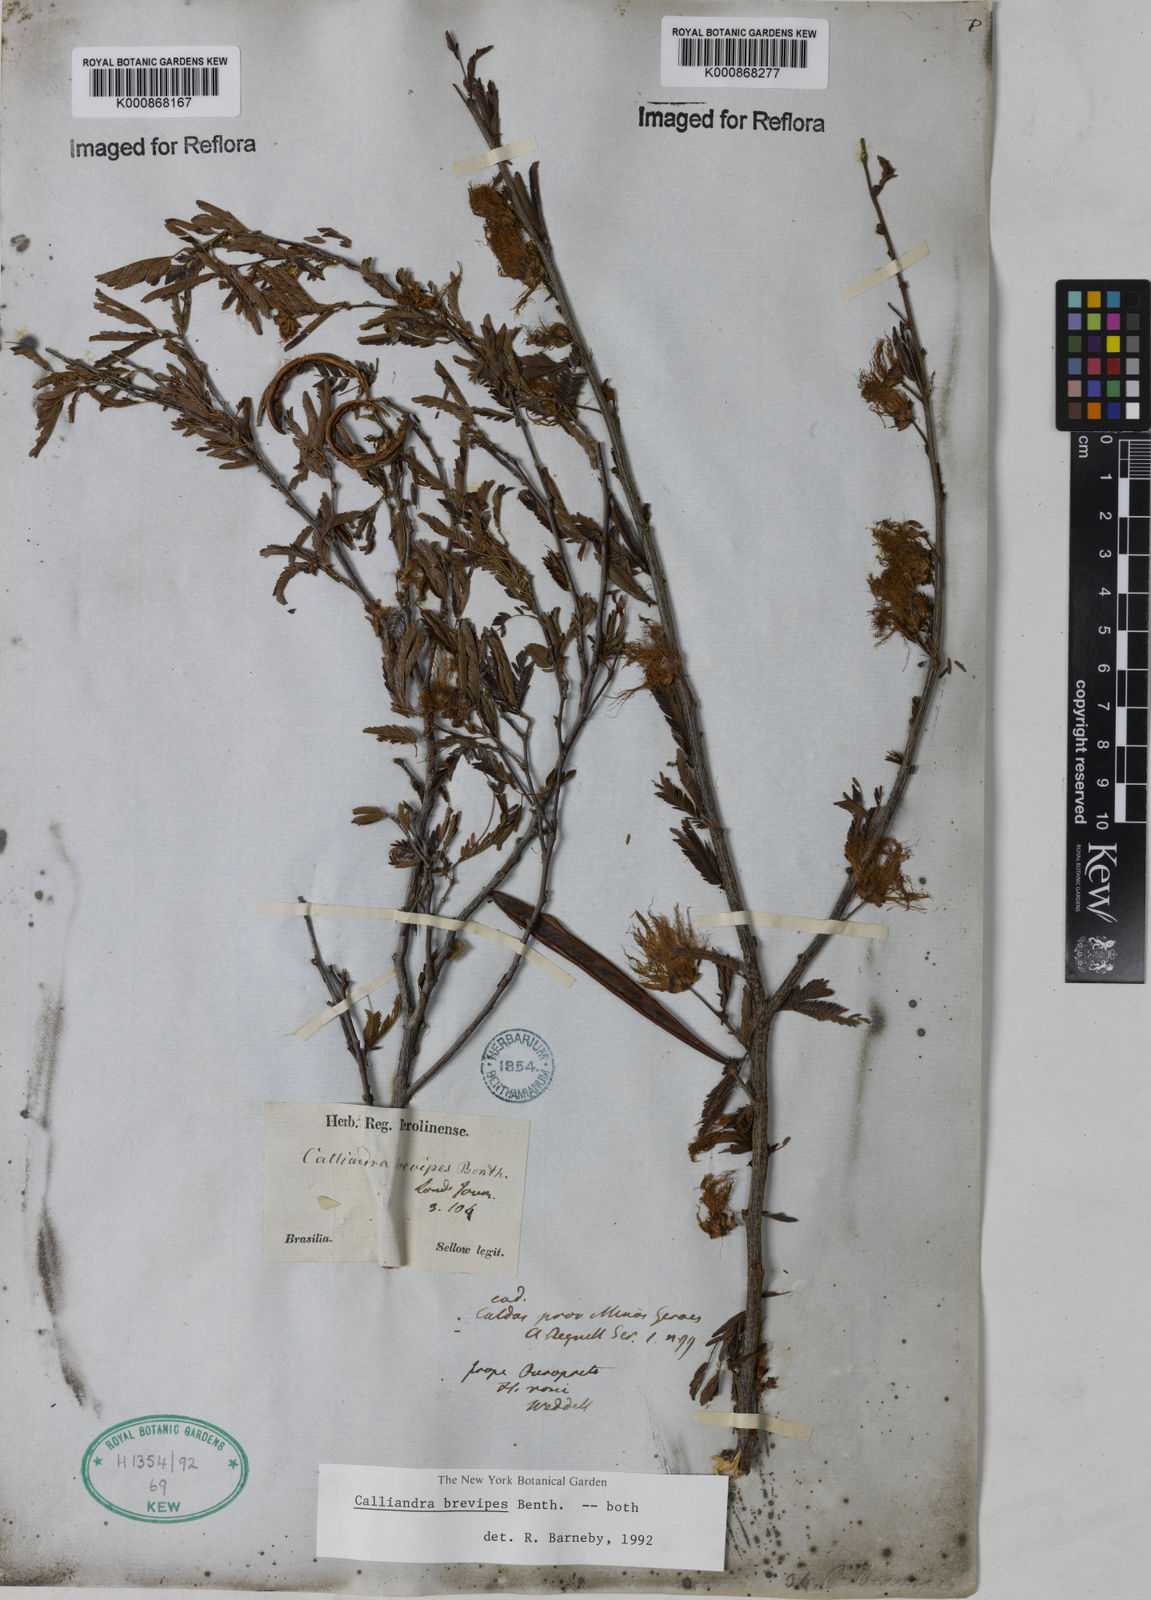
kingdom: Plantae
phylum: Tracheophyta
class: Magnoliopsida
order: Fabales
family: Fabaceae
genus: Calliandra
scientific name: Calliandra selloi
